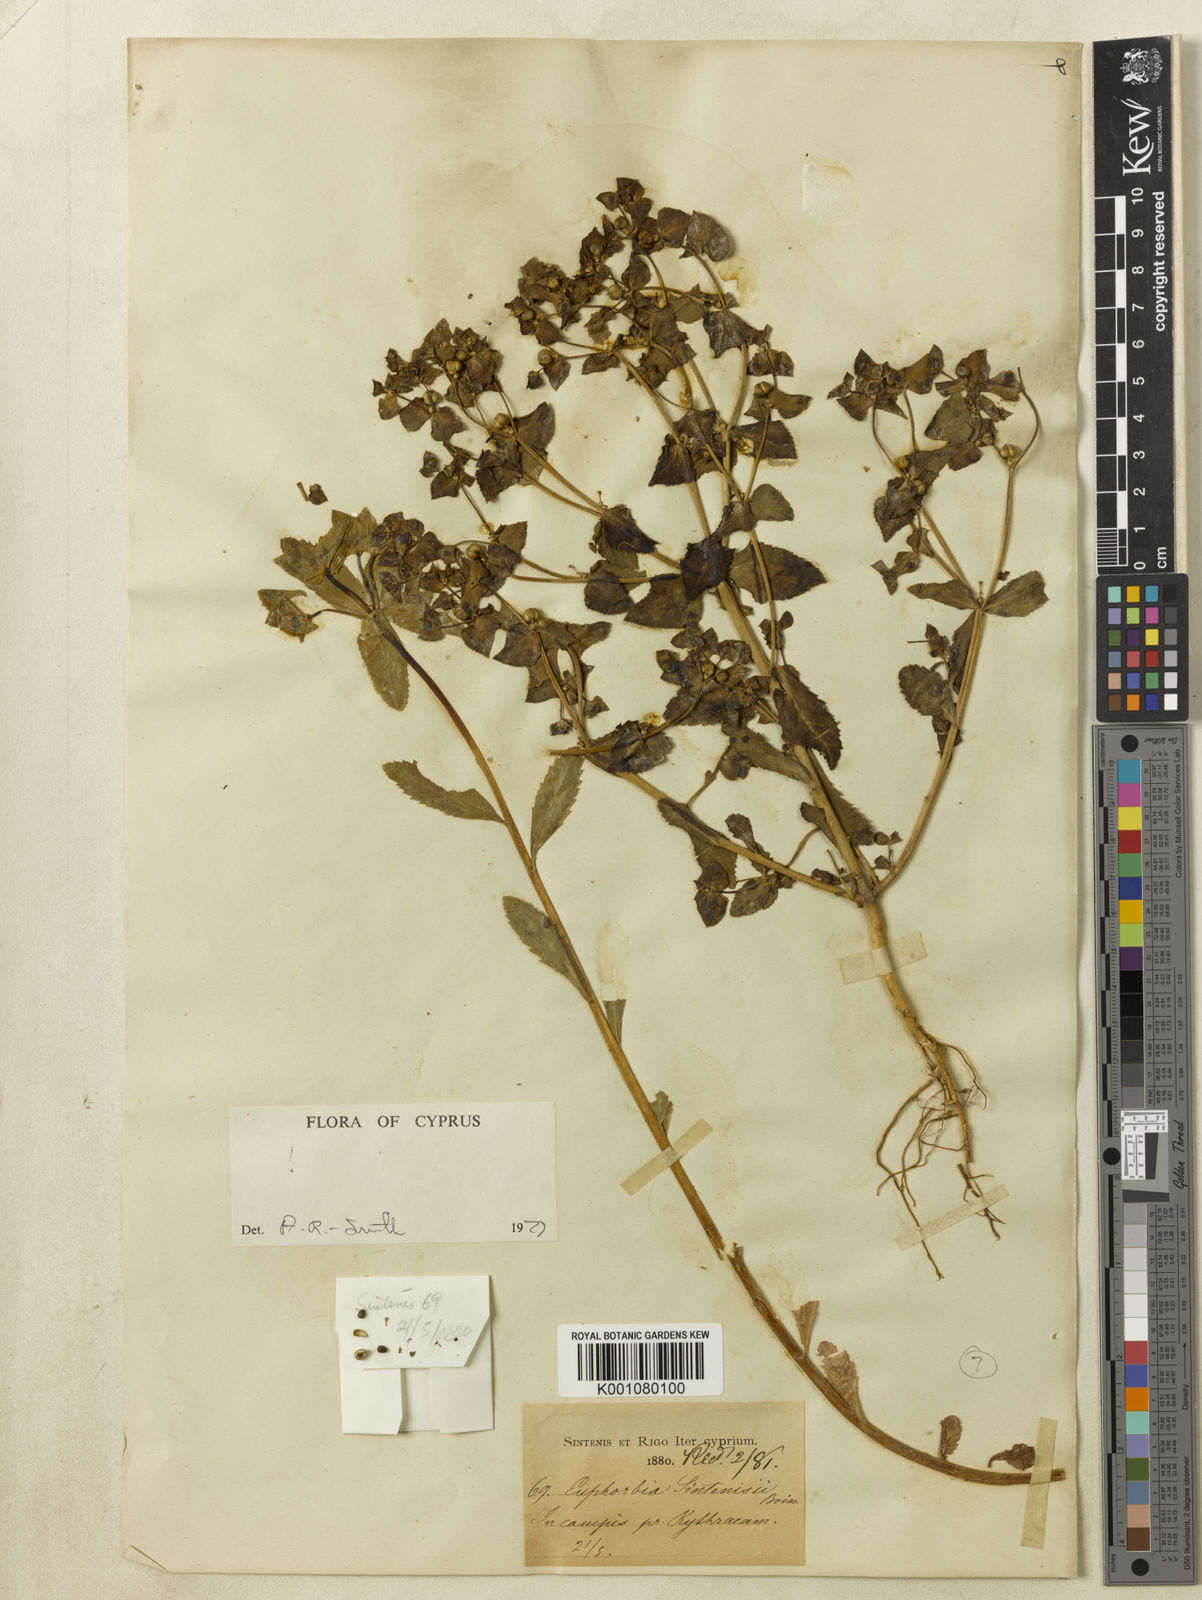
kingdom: Plantae
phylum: Tracheophyta
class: Magnoliopsida
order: Malpighiales
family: Euphorbiaceae
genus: Euphorbia
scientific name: Euphorbia sintenisii
